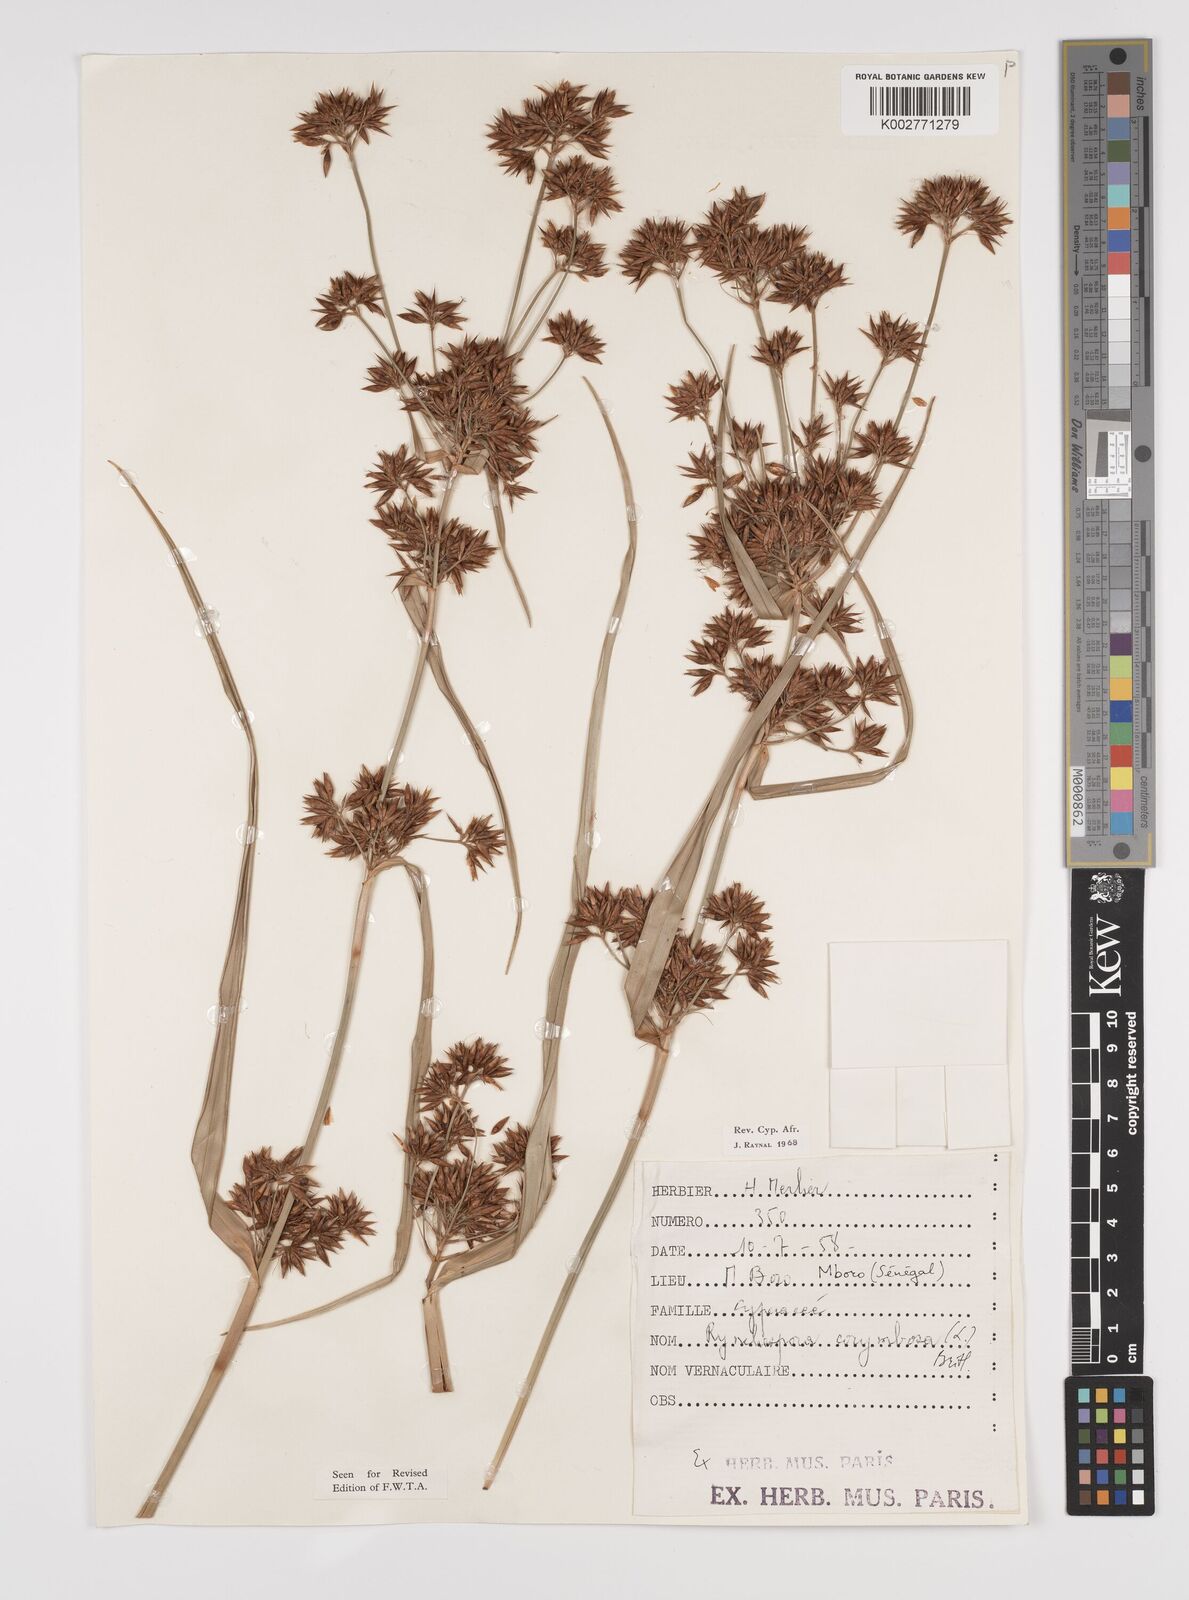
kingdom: Plantae
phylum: Tracheophyta
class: Liliopsida
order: Poales
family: Cyperaceae
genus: Rhynchospora
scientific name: Rhynchospora corymbosa
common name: Golden beak sedge
